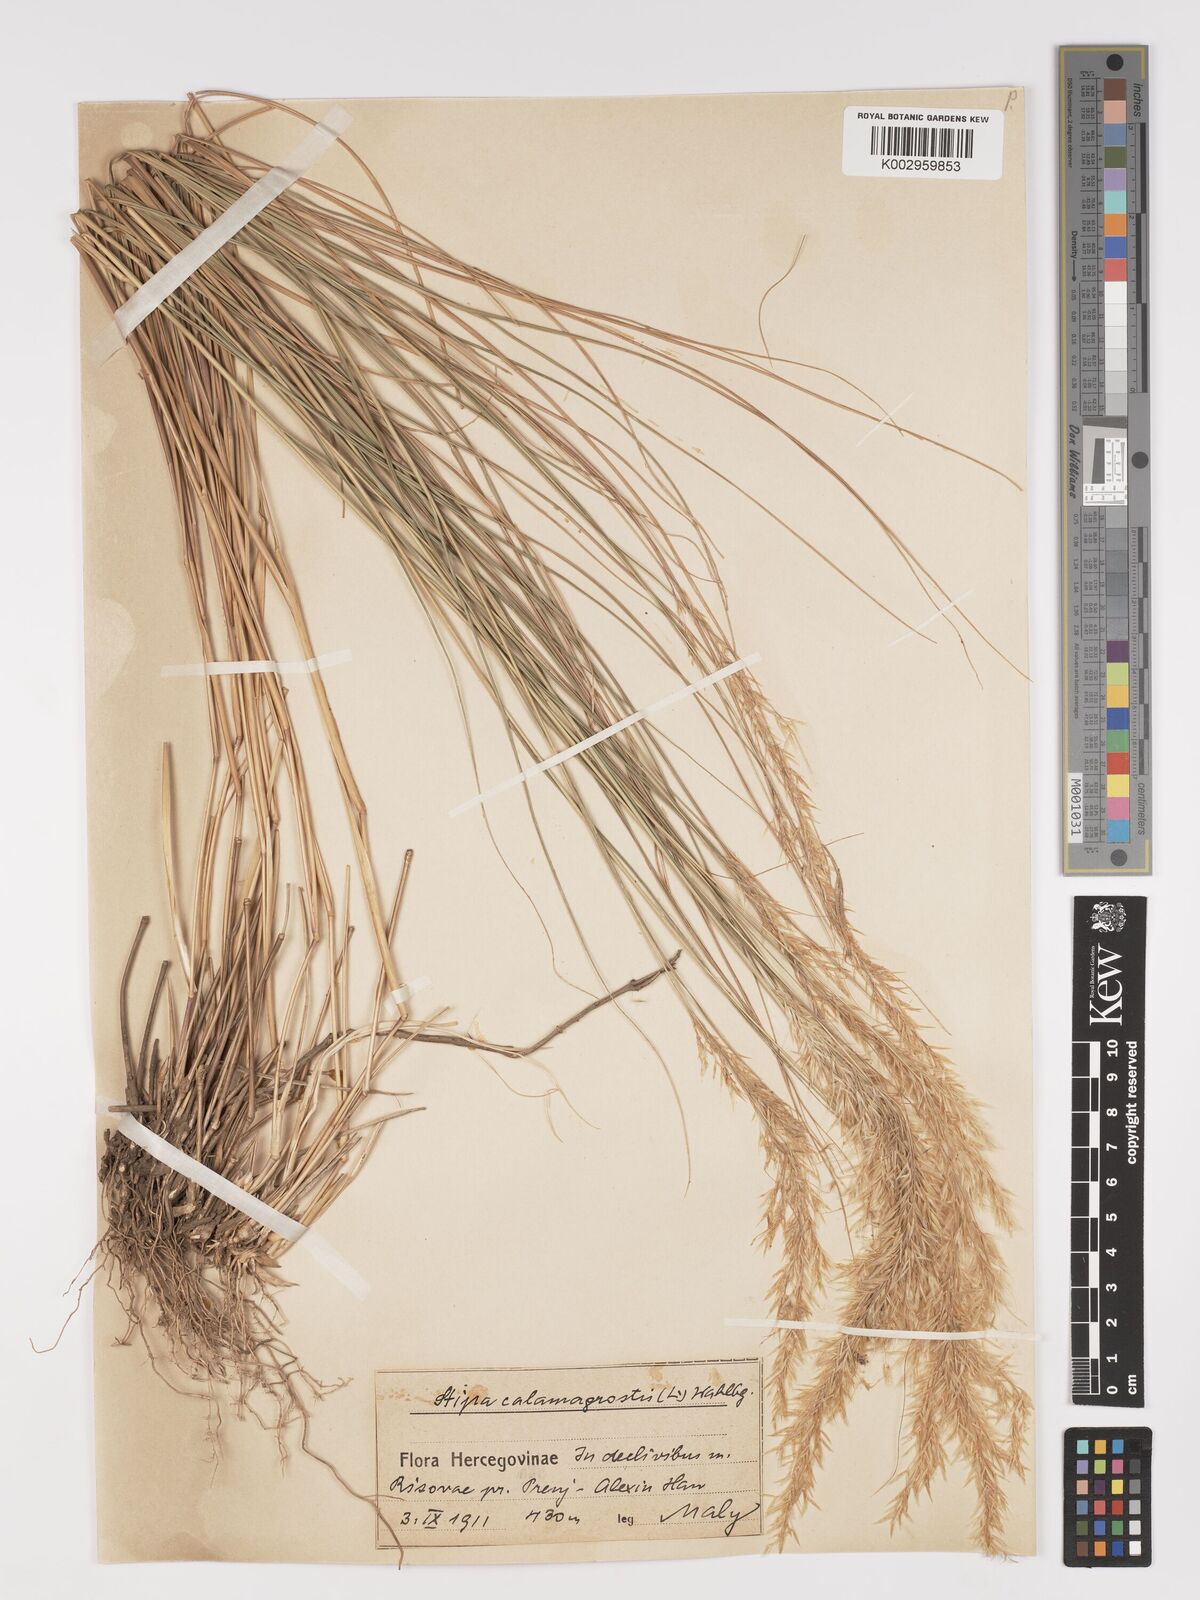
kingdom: Plantae
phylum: Tracheophyta
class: Liliopsida
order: Poales
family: Poaceae
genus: Achnatherum
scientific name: Achnatherum calamagrostis
